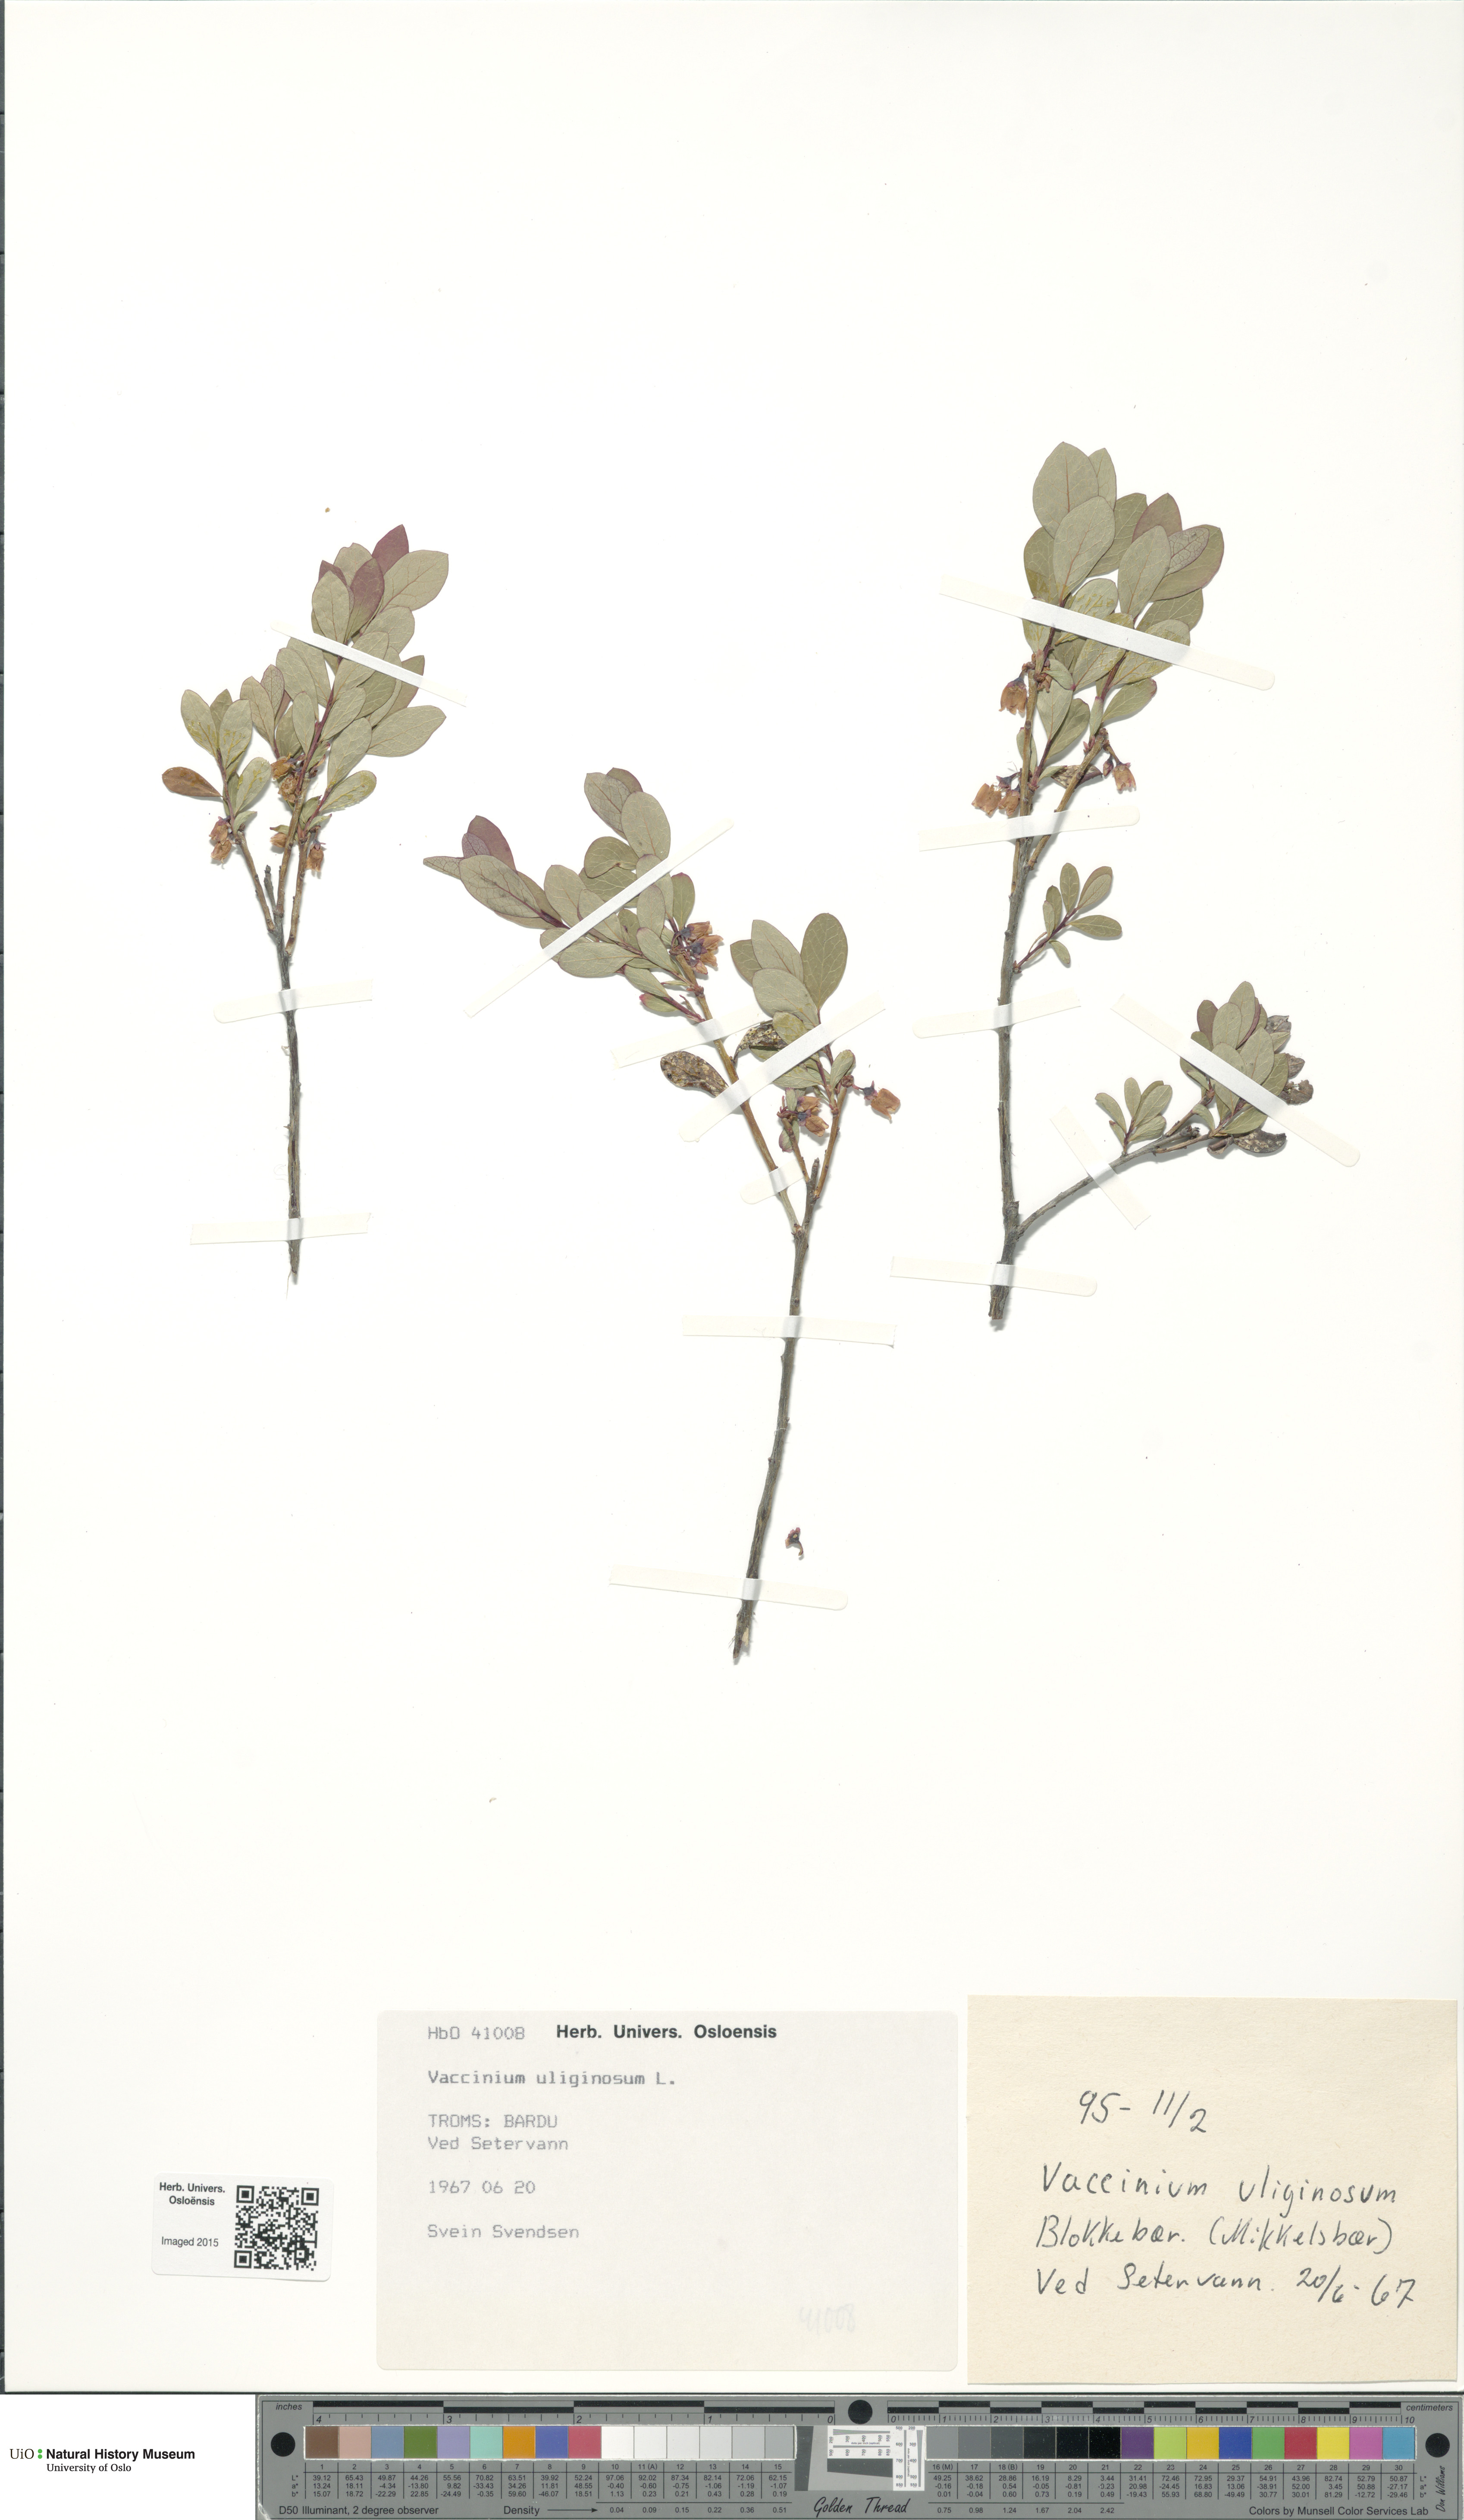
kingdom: Plantae
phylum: Tracheophyta
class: Magnoliopsida
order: Ericales
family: Ericaceae
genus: Vaccinium
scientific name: Vaccinium uliginosum
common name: Bog bilberry
